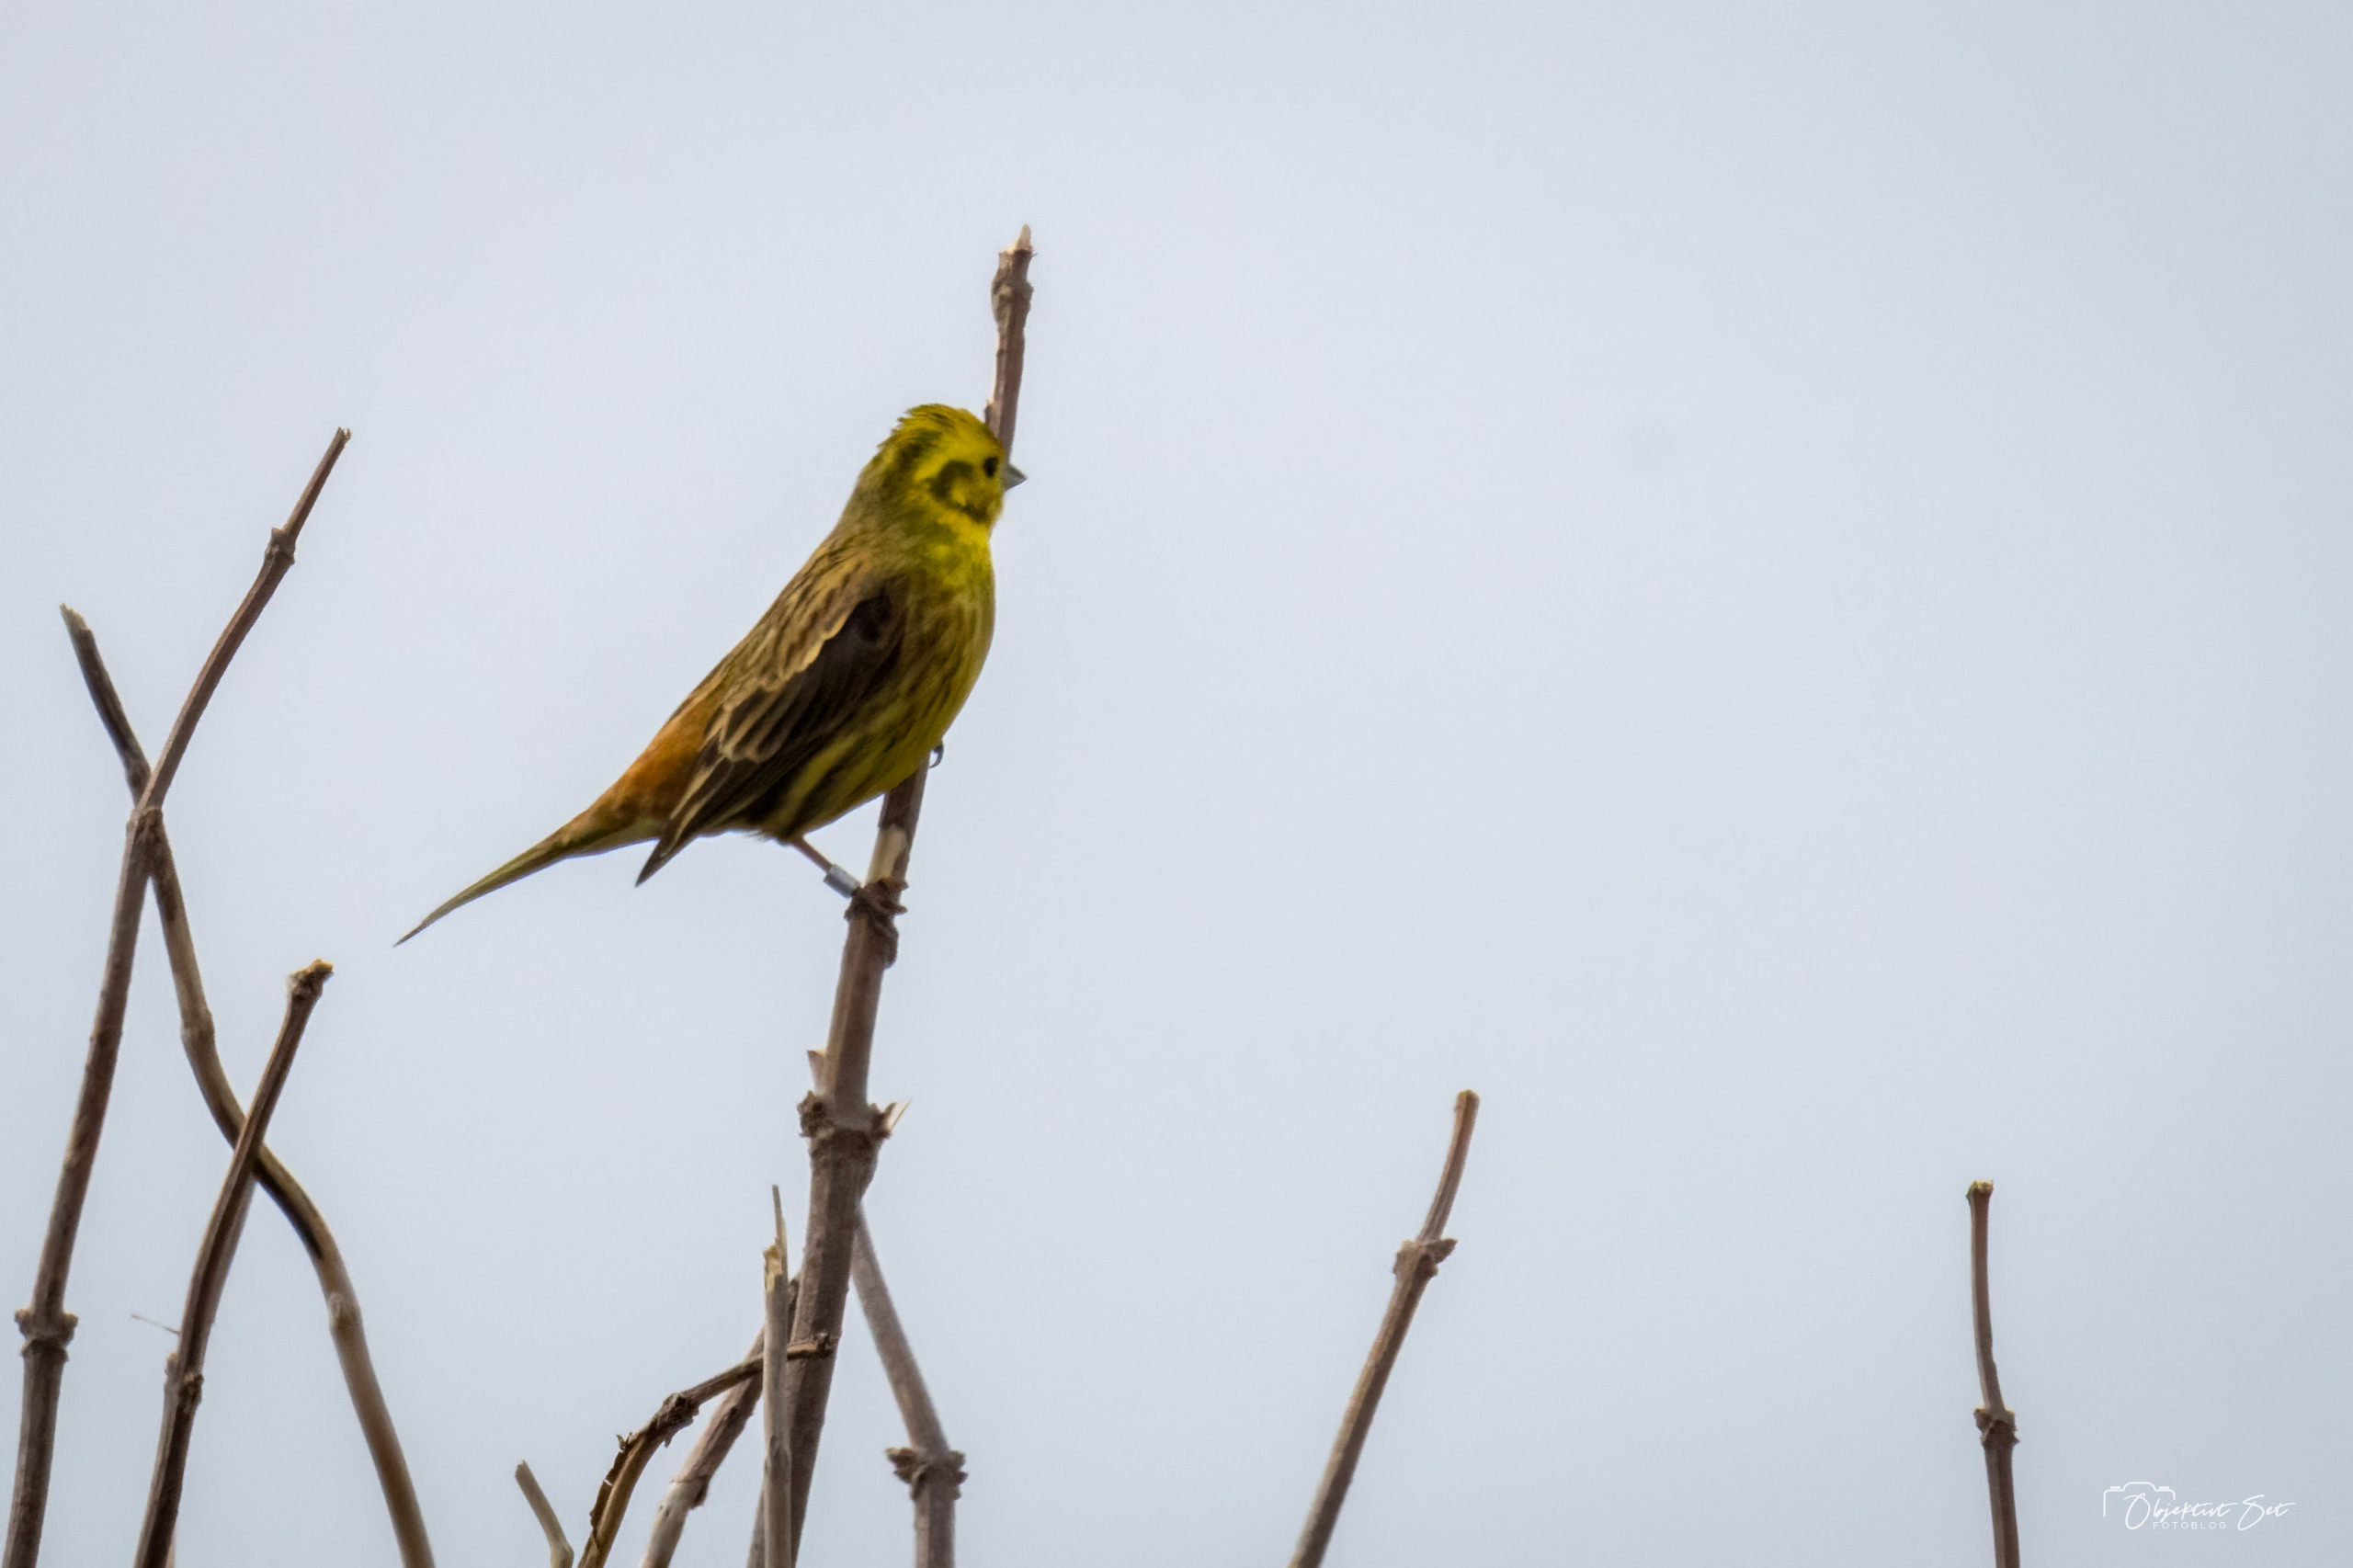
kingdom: Animalia
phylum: Chordata
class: Aves
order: Passeriformes
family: Emberizidae
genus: Emberiza
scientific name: Emberiza citrinella
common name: Gulspurv
